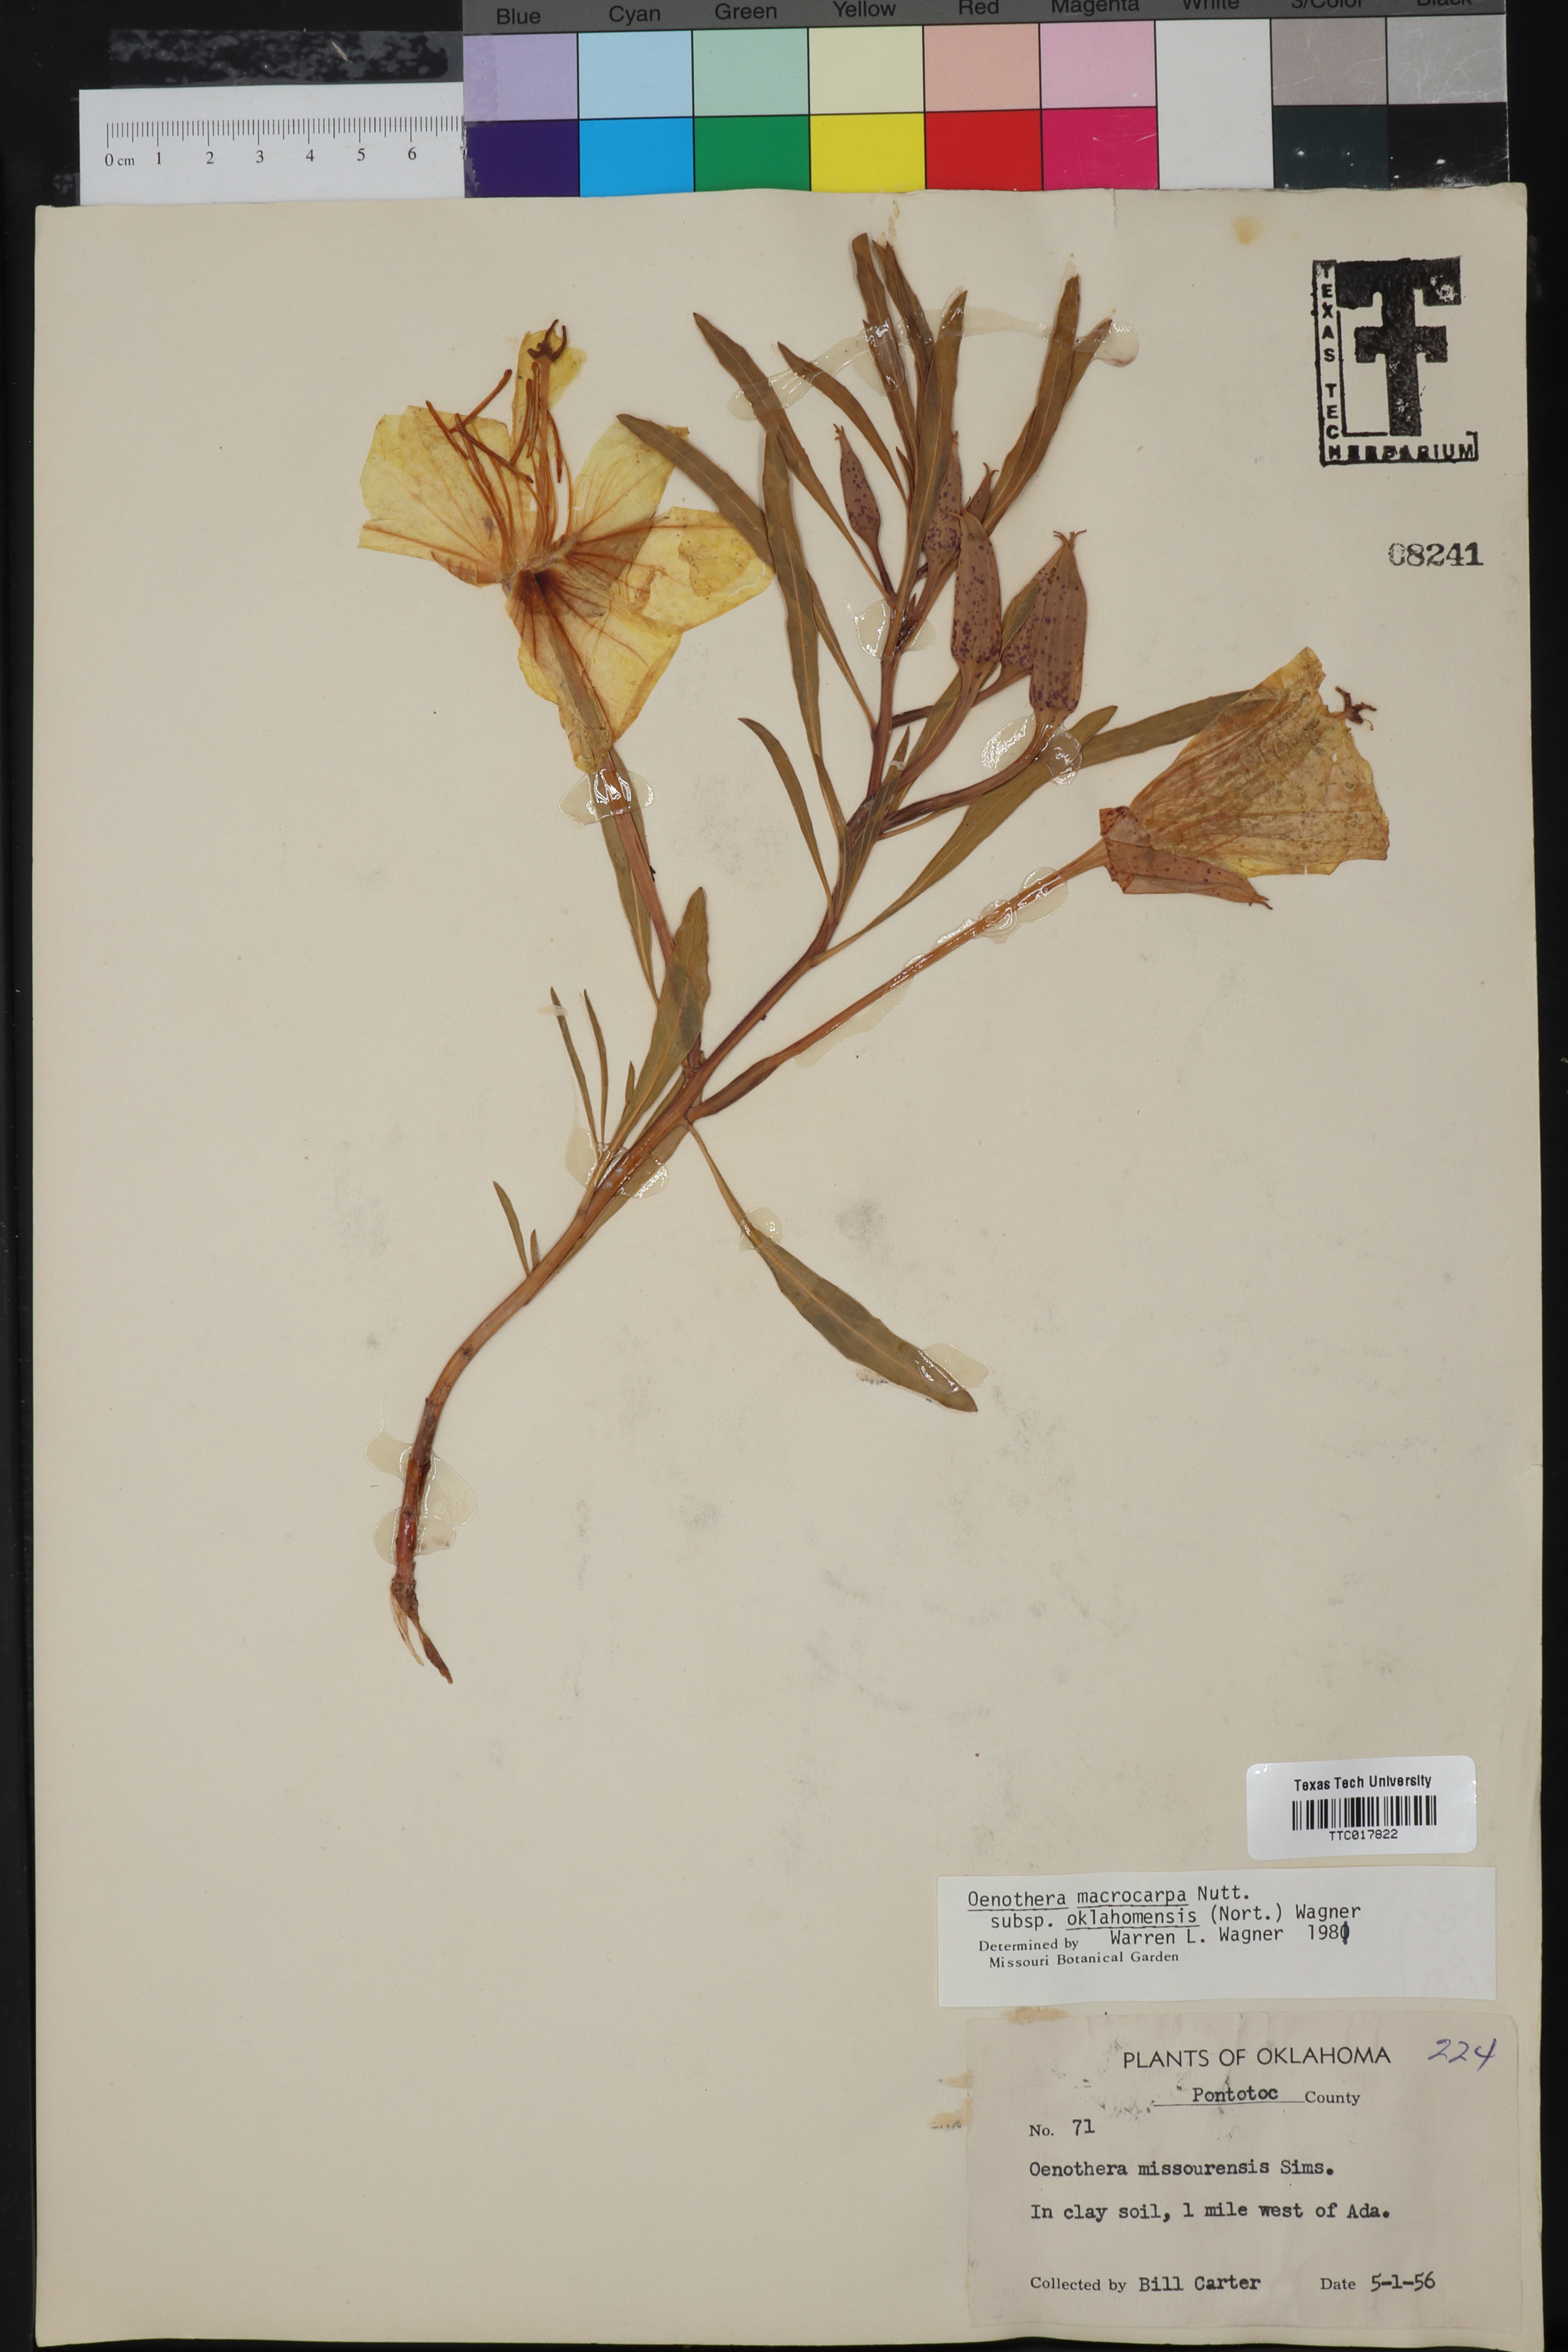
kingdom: Plantae
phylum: Tracheophyta
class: Magnoliopsida
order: Myrtales
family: Onagraceae
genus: Oenothera
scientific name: Oenothera macrocarpa
